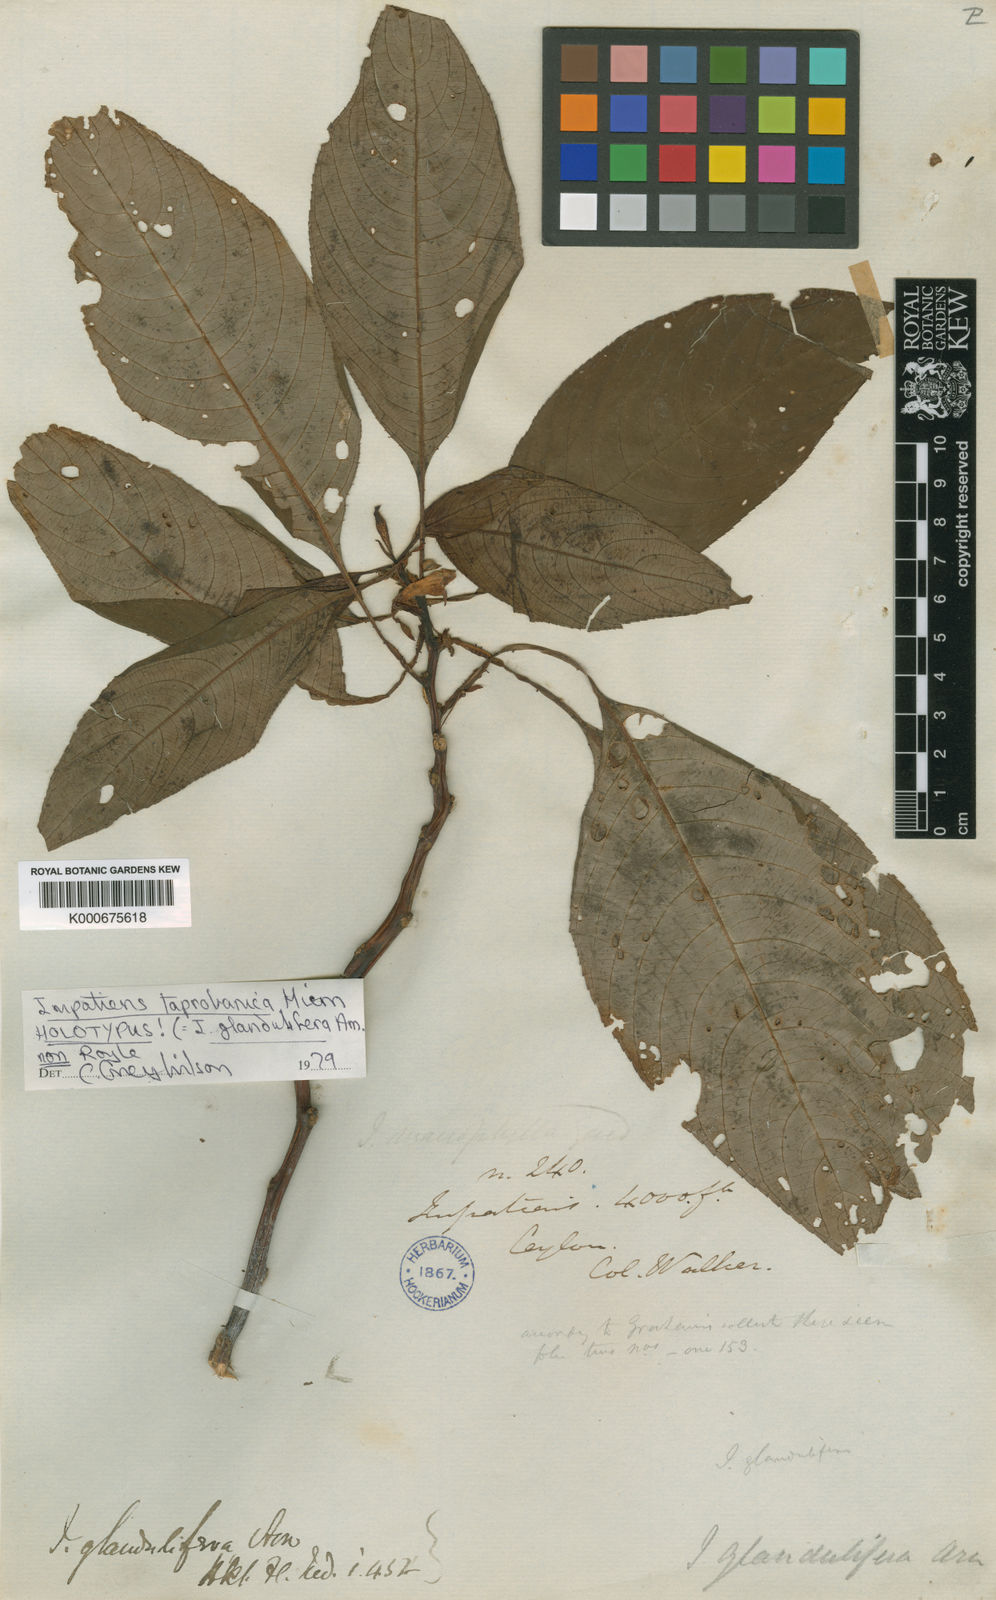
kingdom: Plantae
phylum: Tracheophyta
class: Magnoliopsida
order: Ericales
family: Balsaminaceae
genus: Impatiens
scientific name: Impatiens taprobanica
